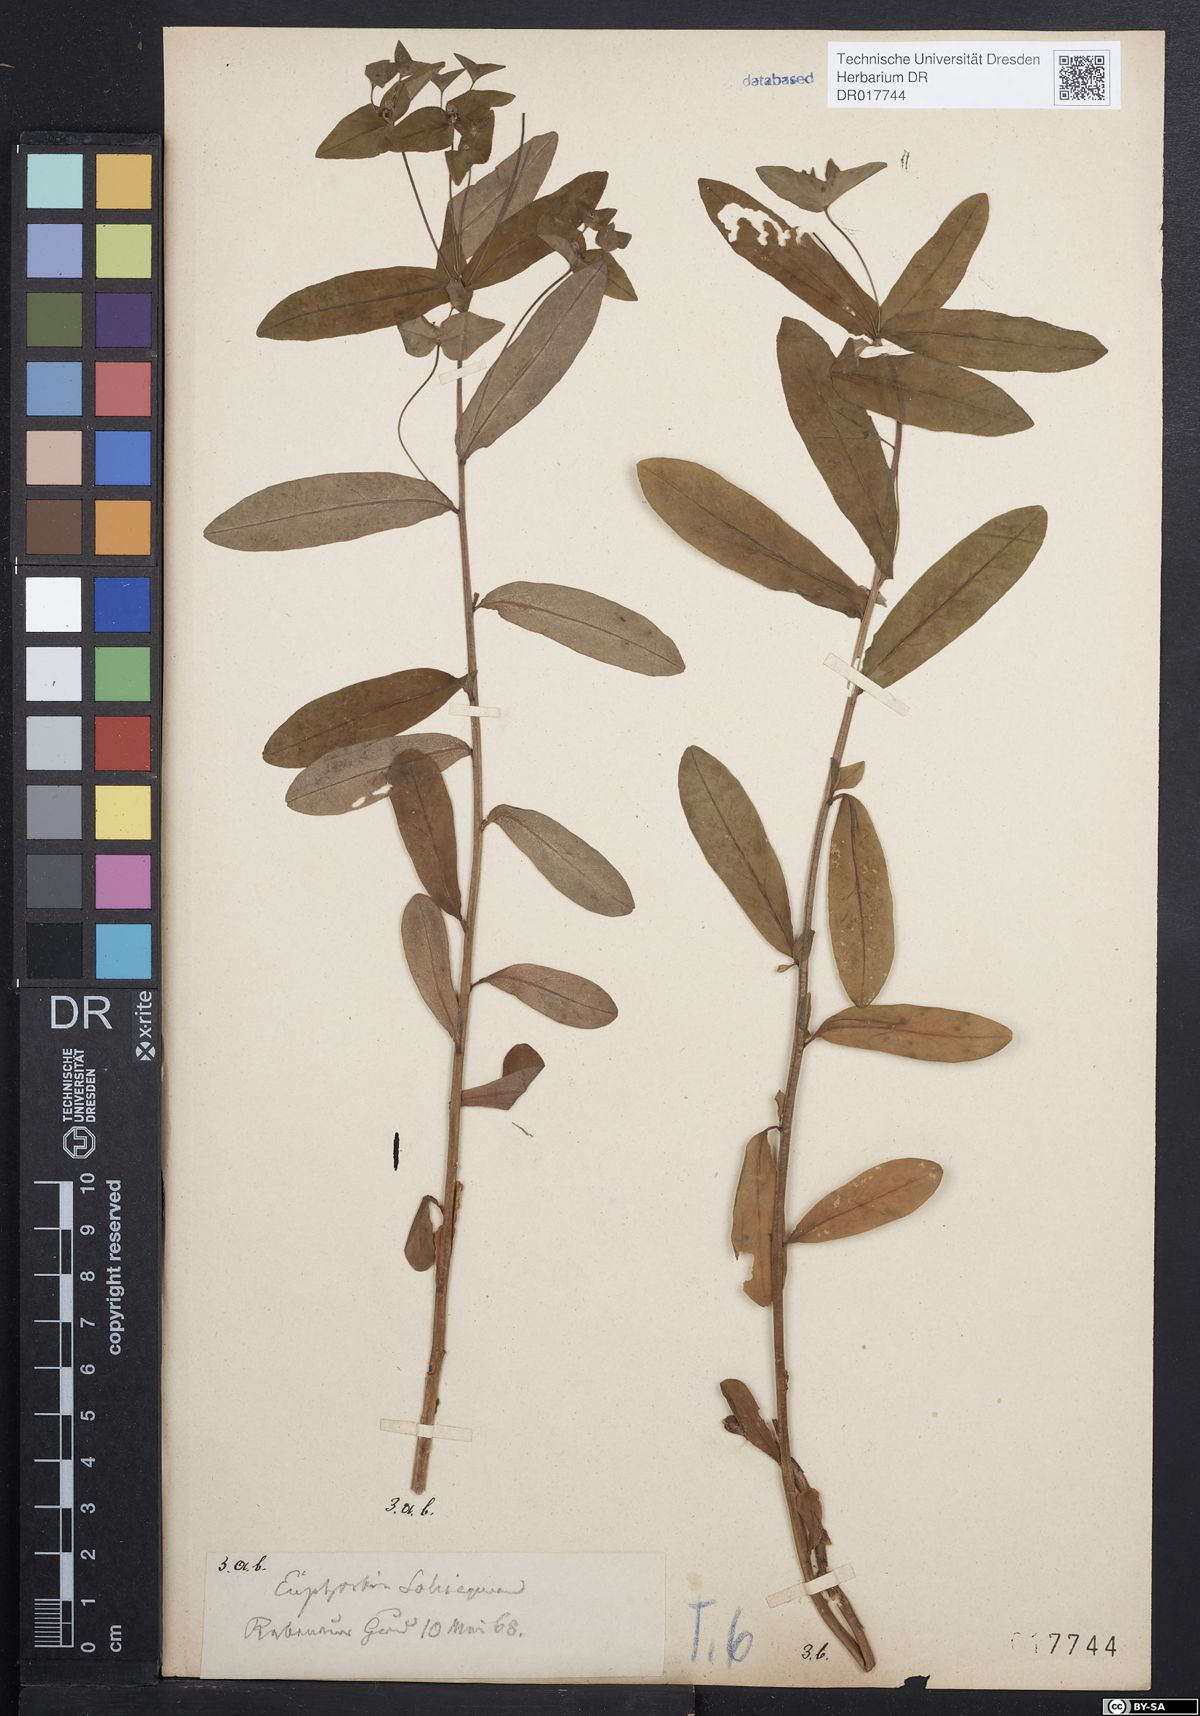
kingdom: Plantae
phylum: Tracheophyta
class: Magnoliopsida
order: Malpighiales
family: Euphorbiaceae
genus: Euphorbia
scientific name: Euphorbia dulcis
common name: Sweet spurge
